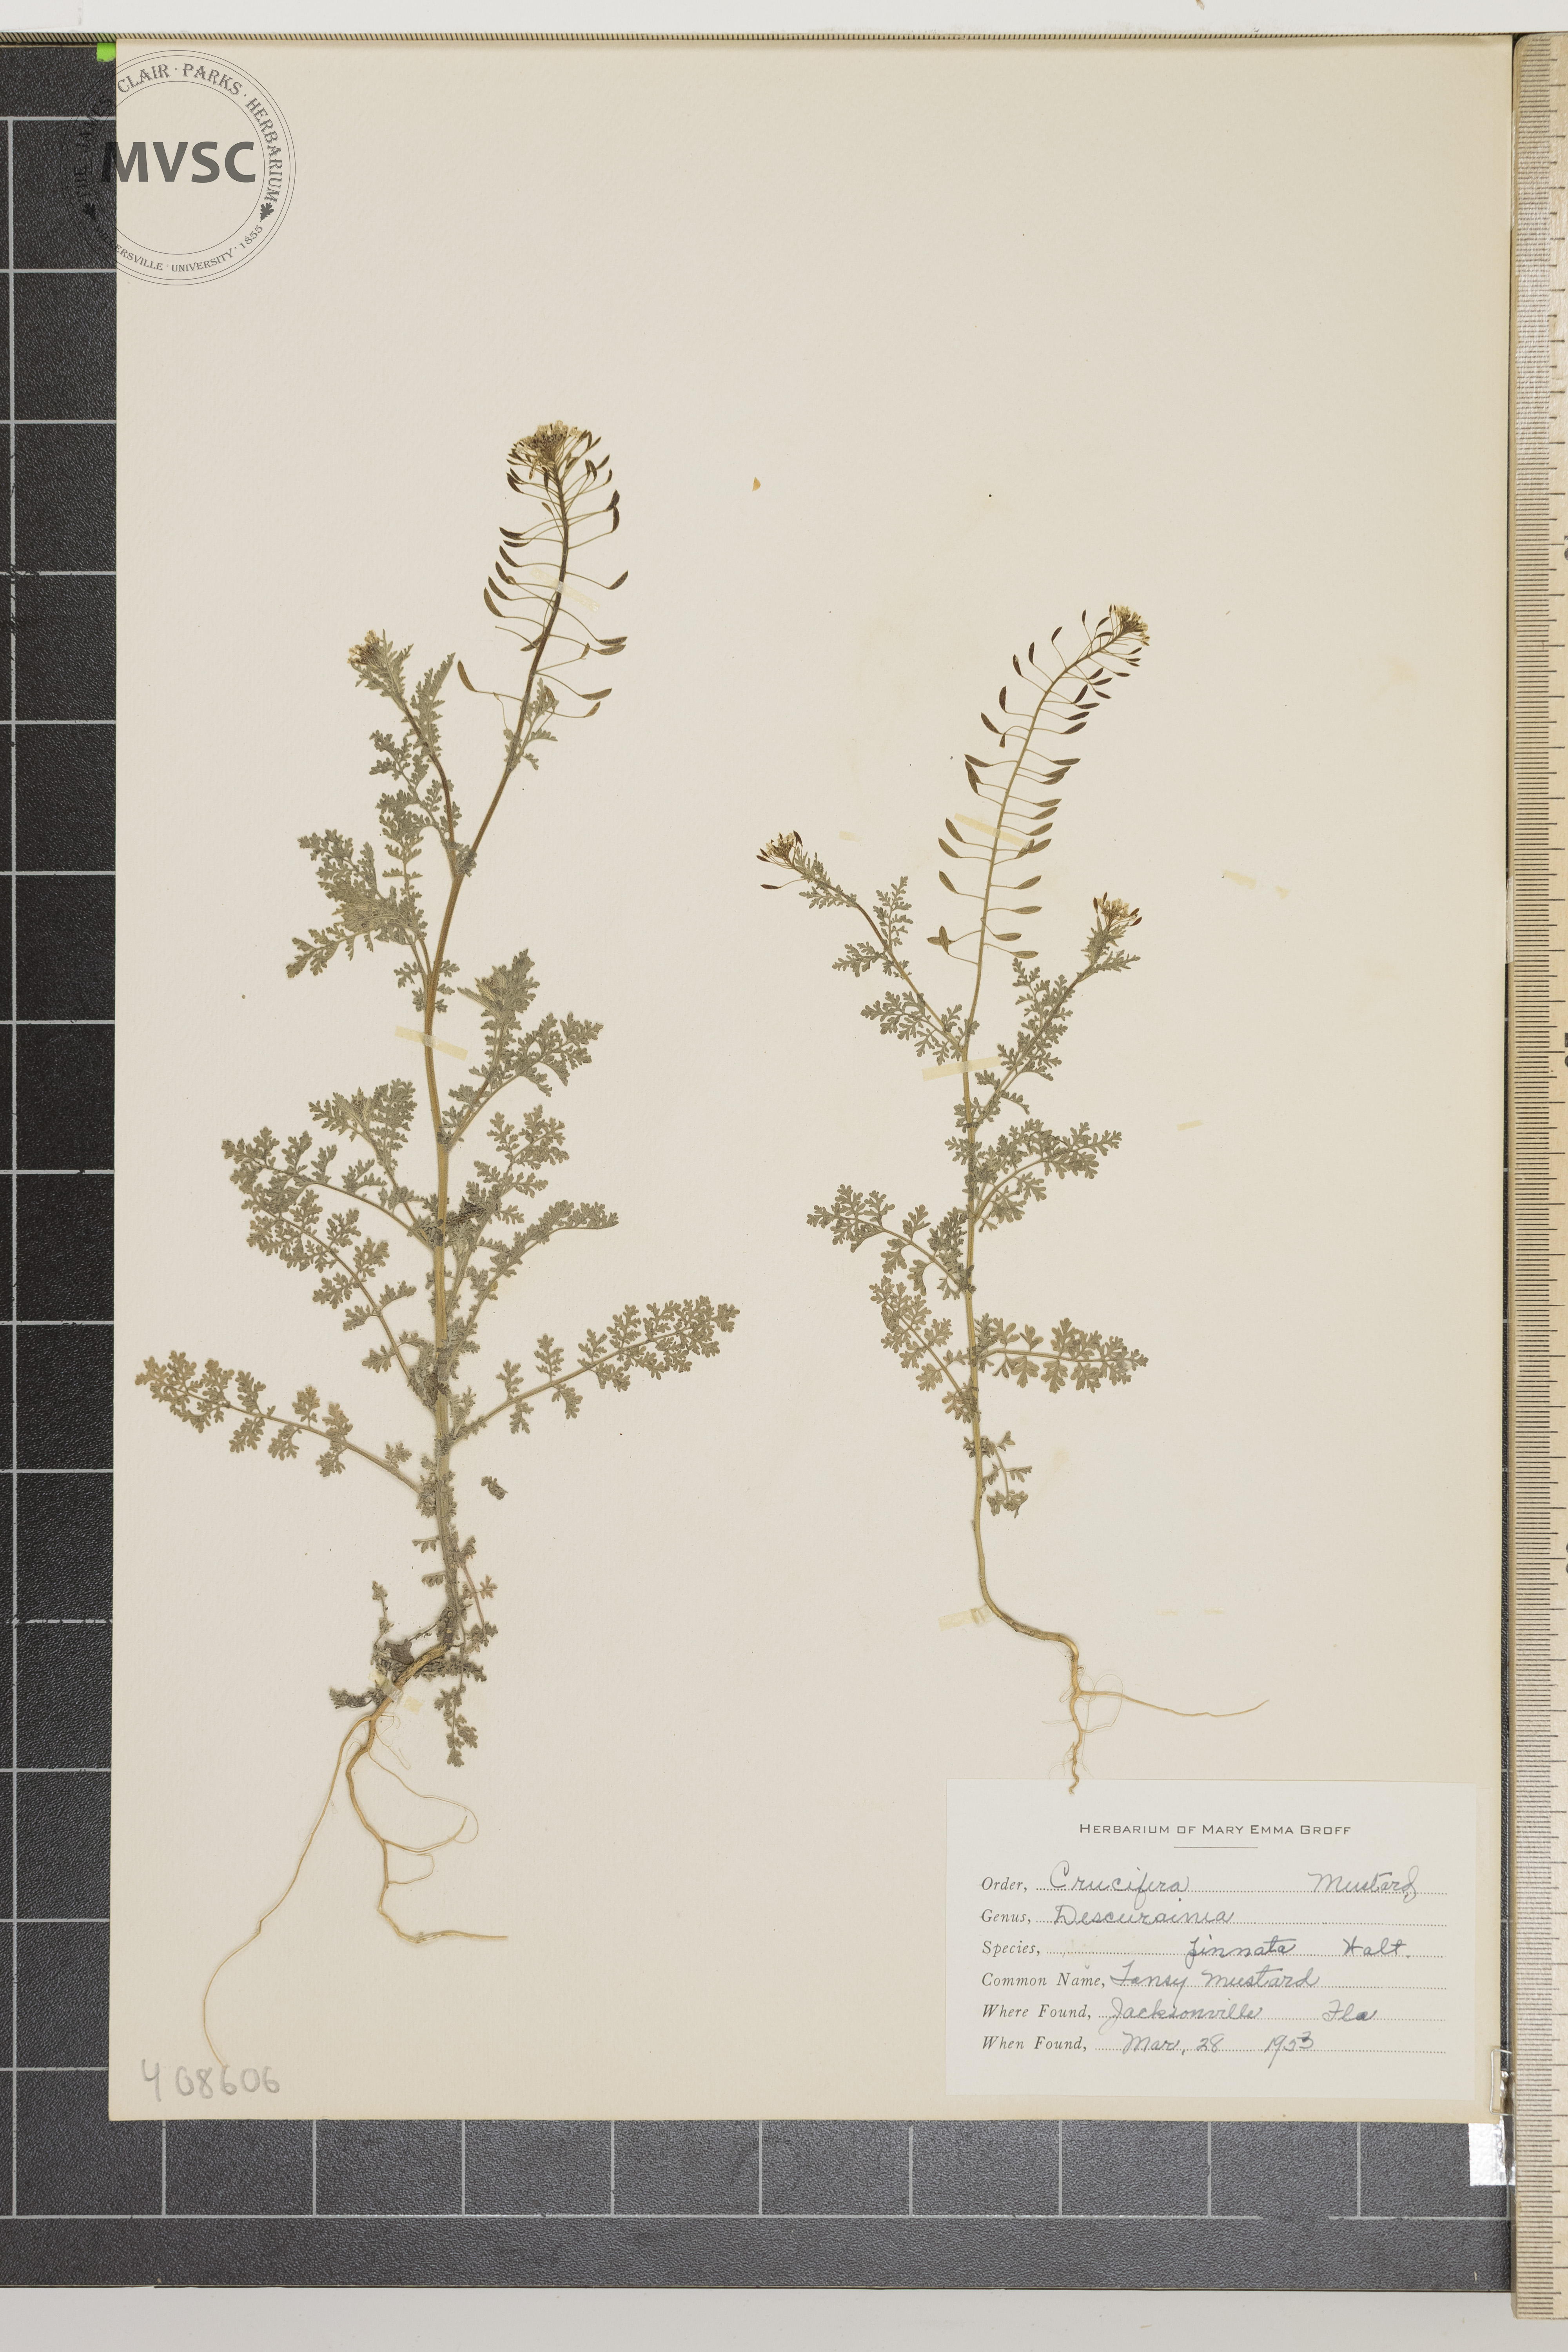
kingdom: Plantae
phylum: Tracheophyta
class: Magnoliopsida
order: Brassicales
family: Brassicaceae
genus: Descurainia
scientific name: Descurainia pinnata
